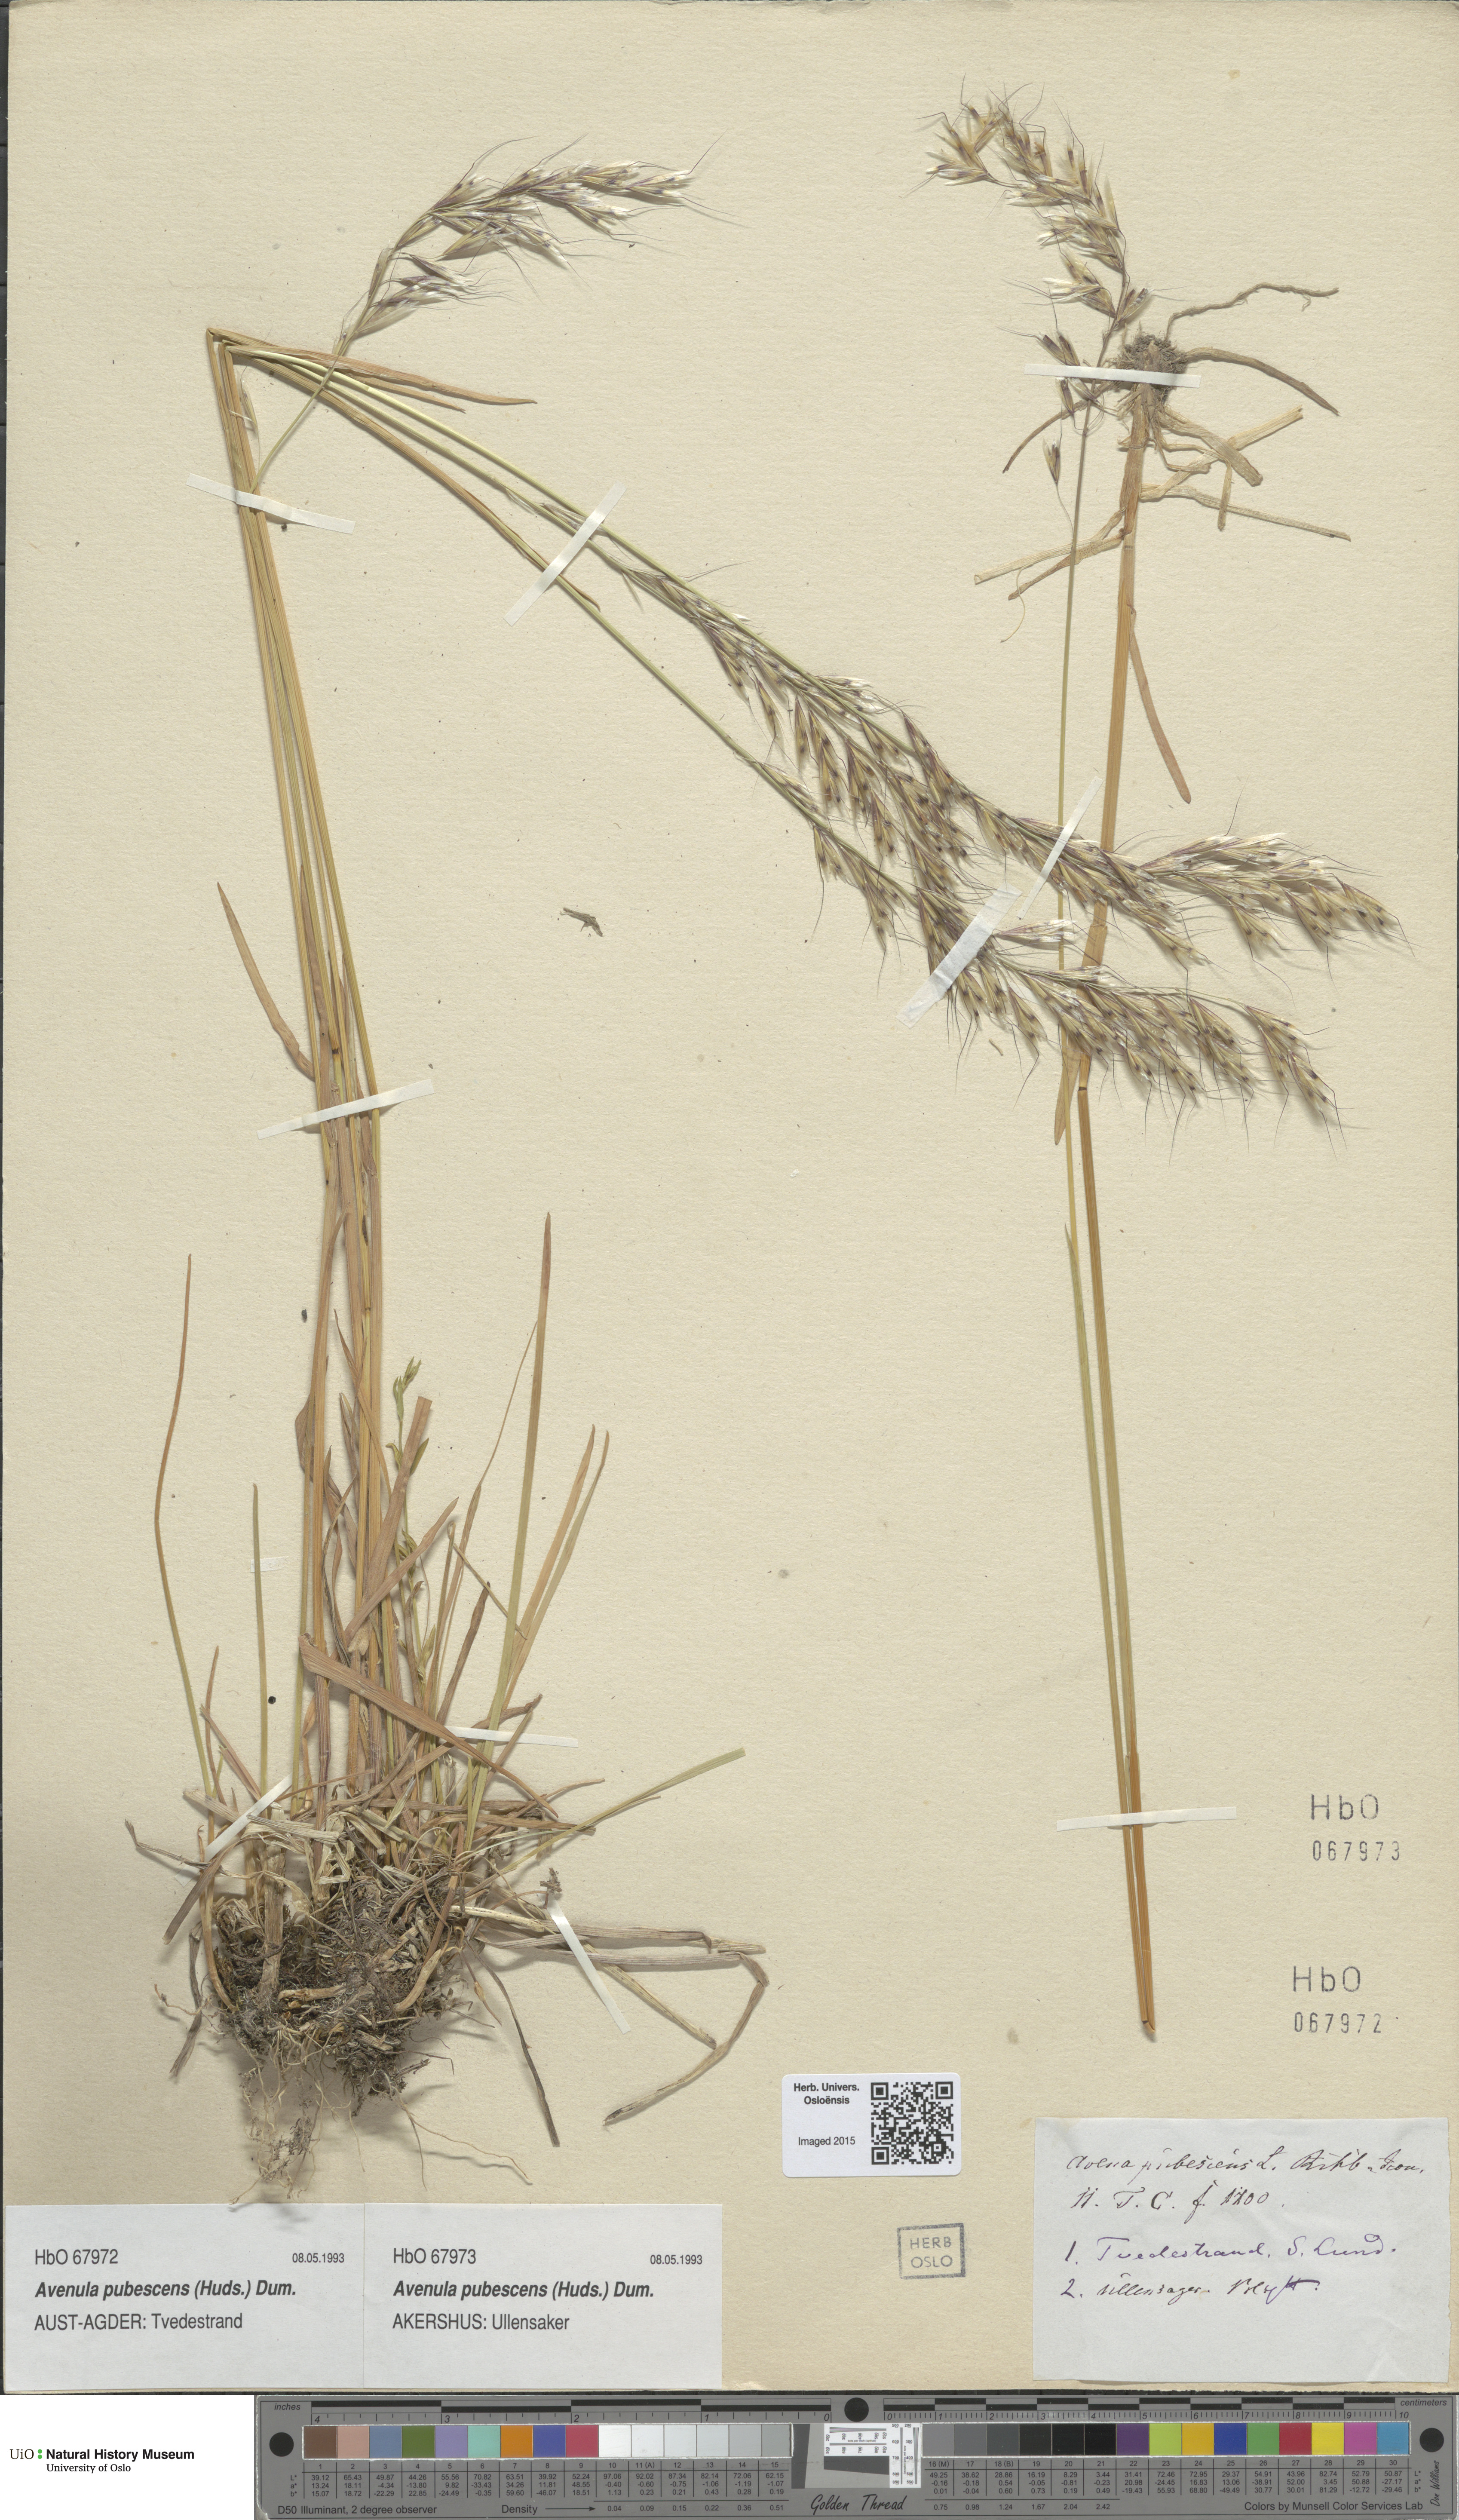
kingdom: Plantae
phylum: Tracheophyta
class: Liliopsida
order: Poales
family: Poaceae
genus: Avenula
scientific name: Avenula pubescens
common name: Downy alpine oatgrass
